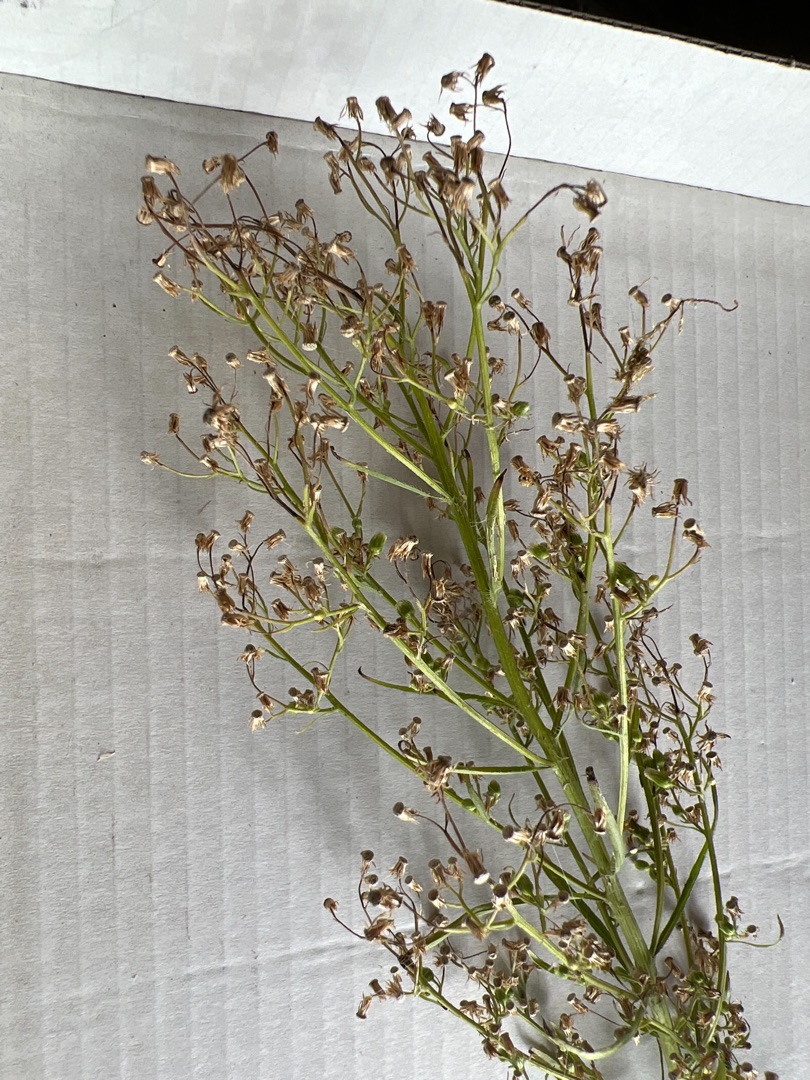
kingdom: Plantae
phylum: Tracheophyta
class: Magnoliopsida
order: Asterales
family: Asteraceae
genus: Erigeron
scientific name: Erigeron canadensis
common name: Kanadisk bakkestjerne
